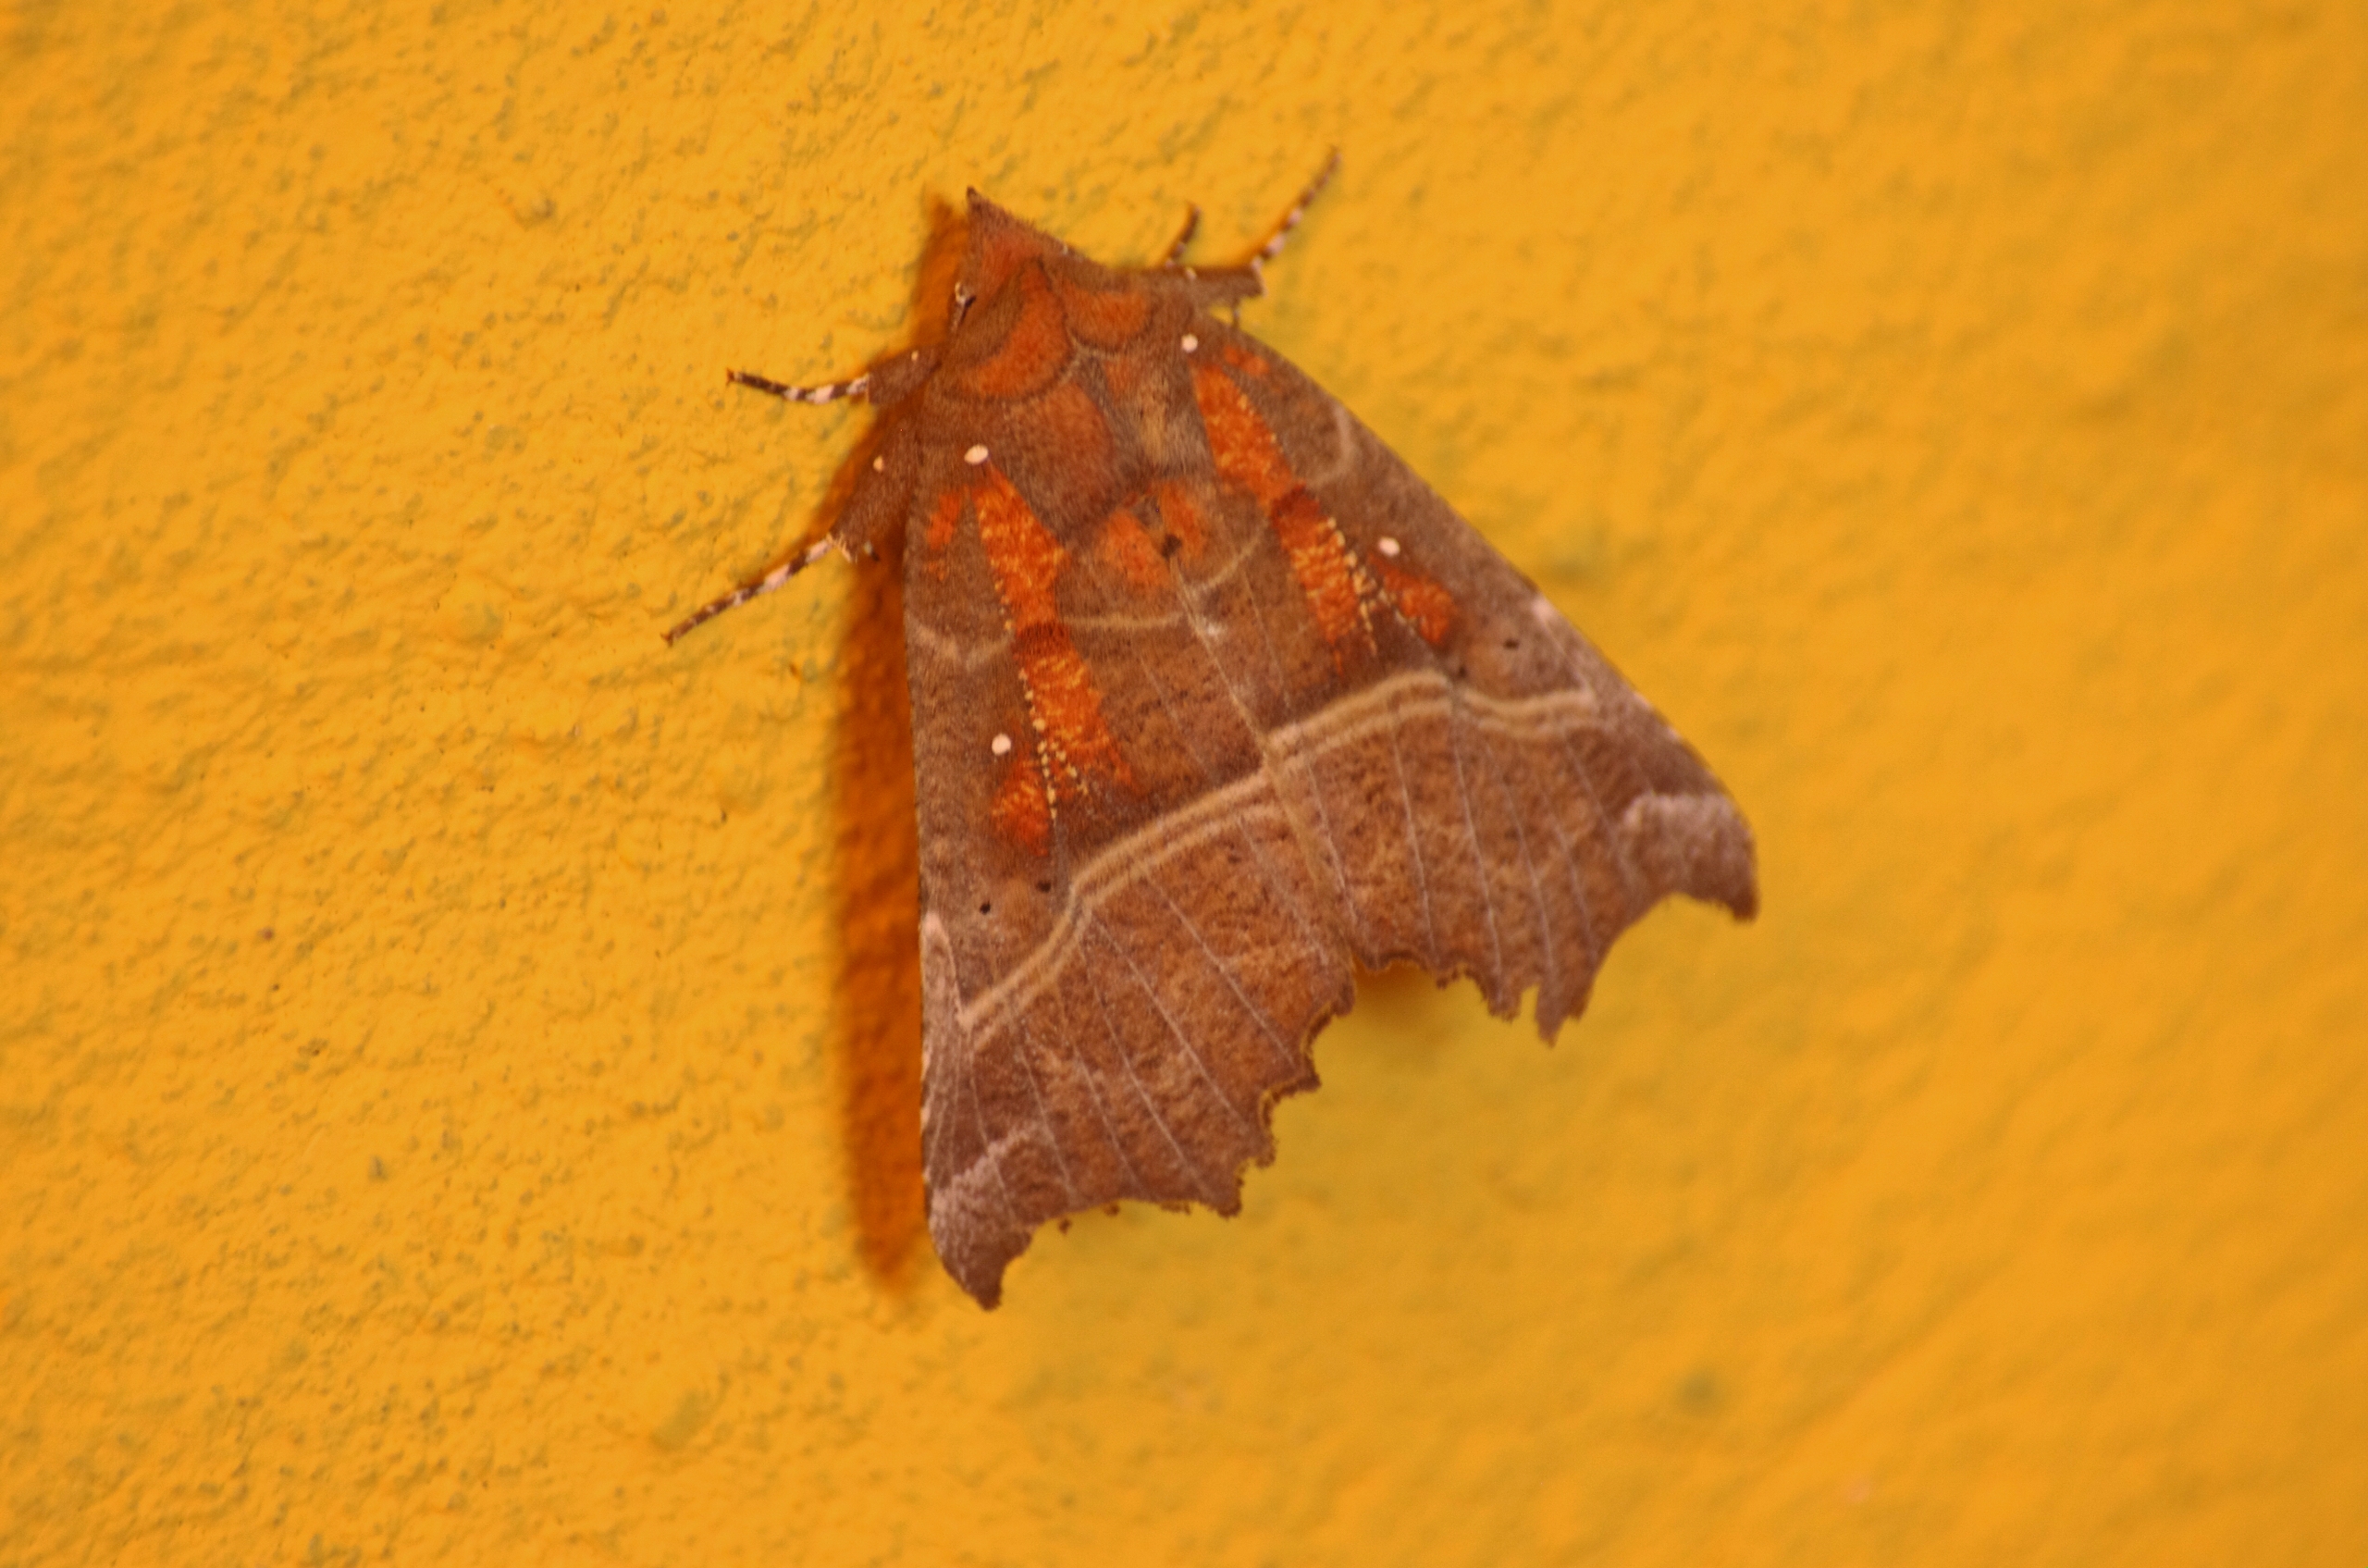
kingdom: Animalia
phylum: Arthropoda
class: Insecta
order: Lepidoptera
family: Erebidae
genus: Scoliopteryx
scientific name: Scoliopteryx libatrix
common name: Husmoderugle
